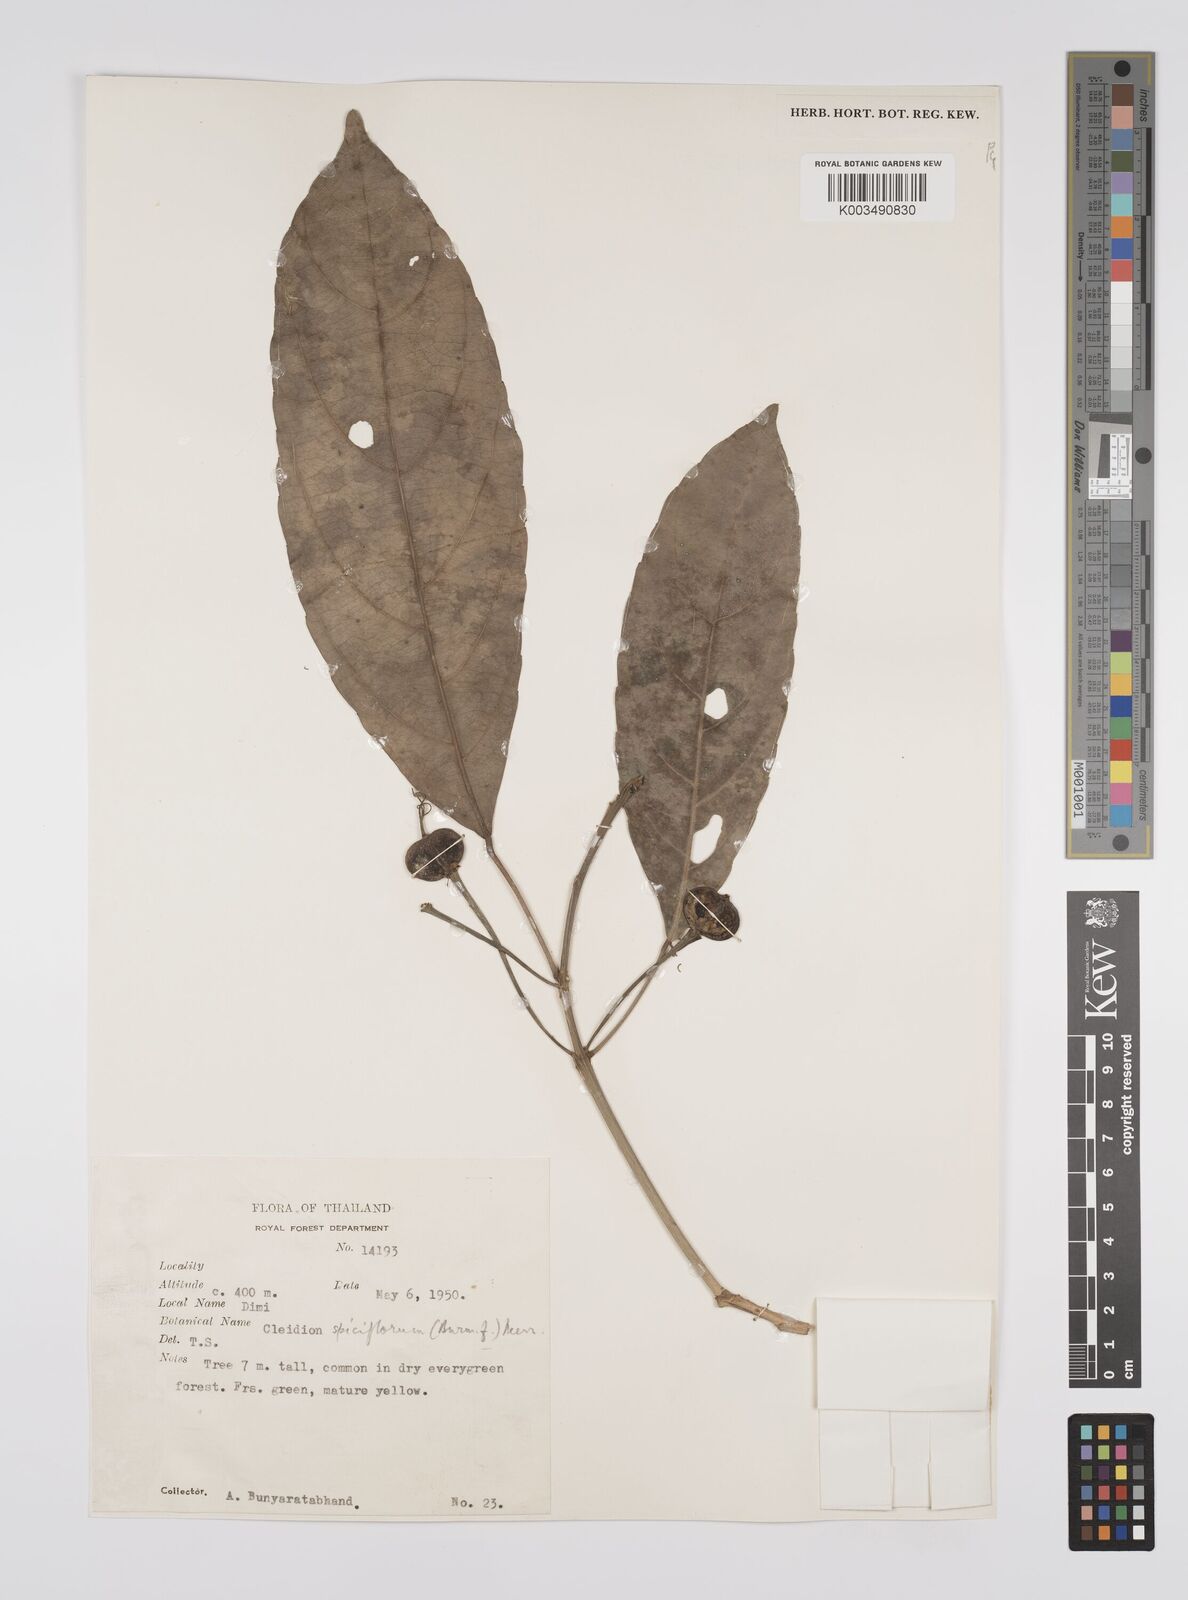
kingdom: Plantae
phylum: Tracheophyta
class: Magnoliopsida
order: Malpighiales
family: Euphorbiaceae
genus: Acalypha
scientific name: Acalypha spiciflora
